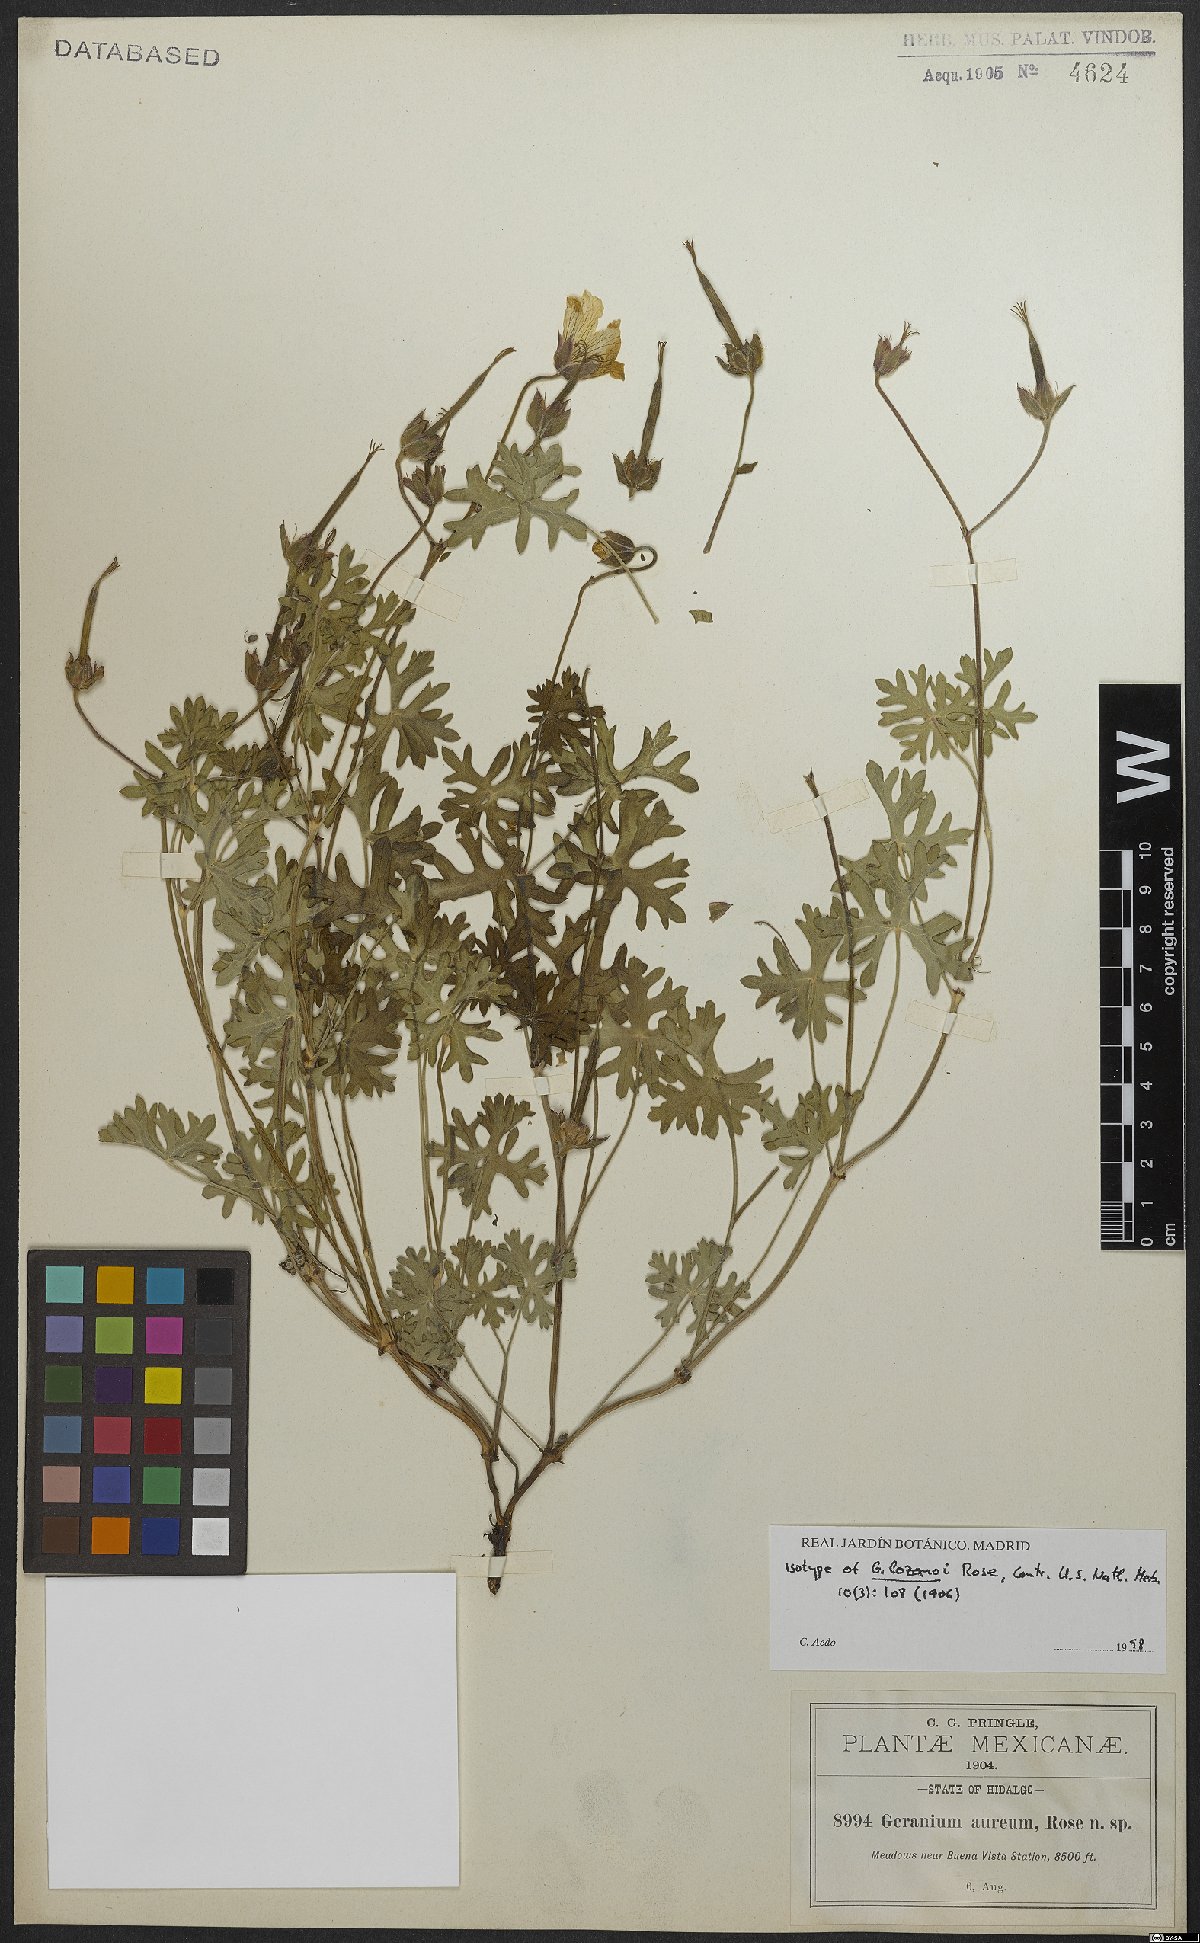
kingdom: Plantae
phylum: Tracheophyta
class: Magnoliopsida
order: Geraniales
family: Geraniaceae
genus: Geranium
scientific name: Geranium lozanoi
